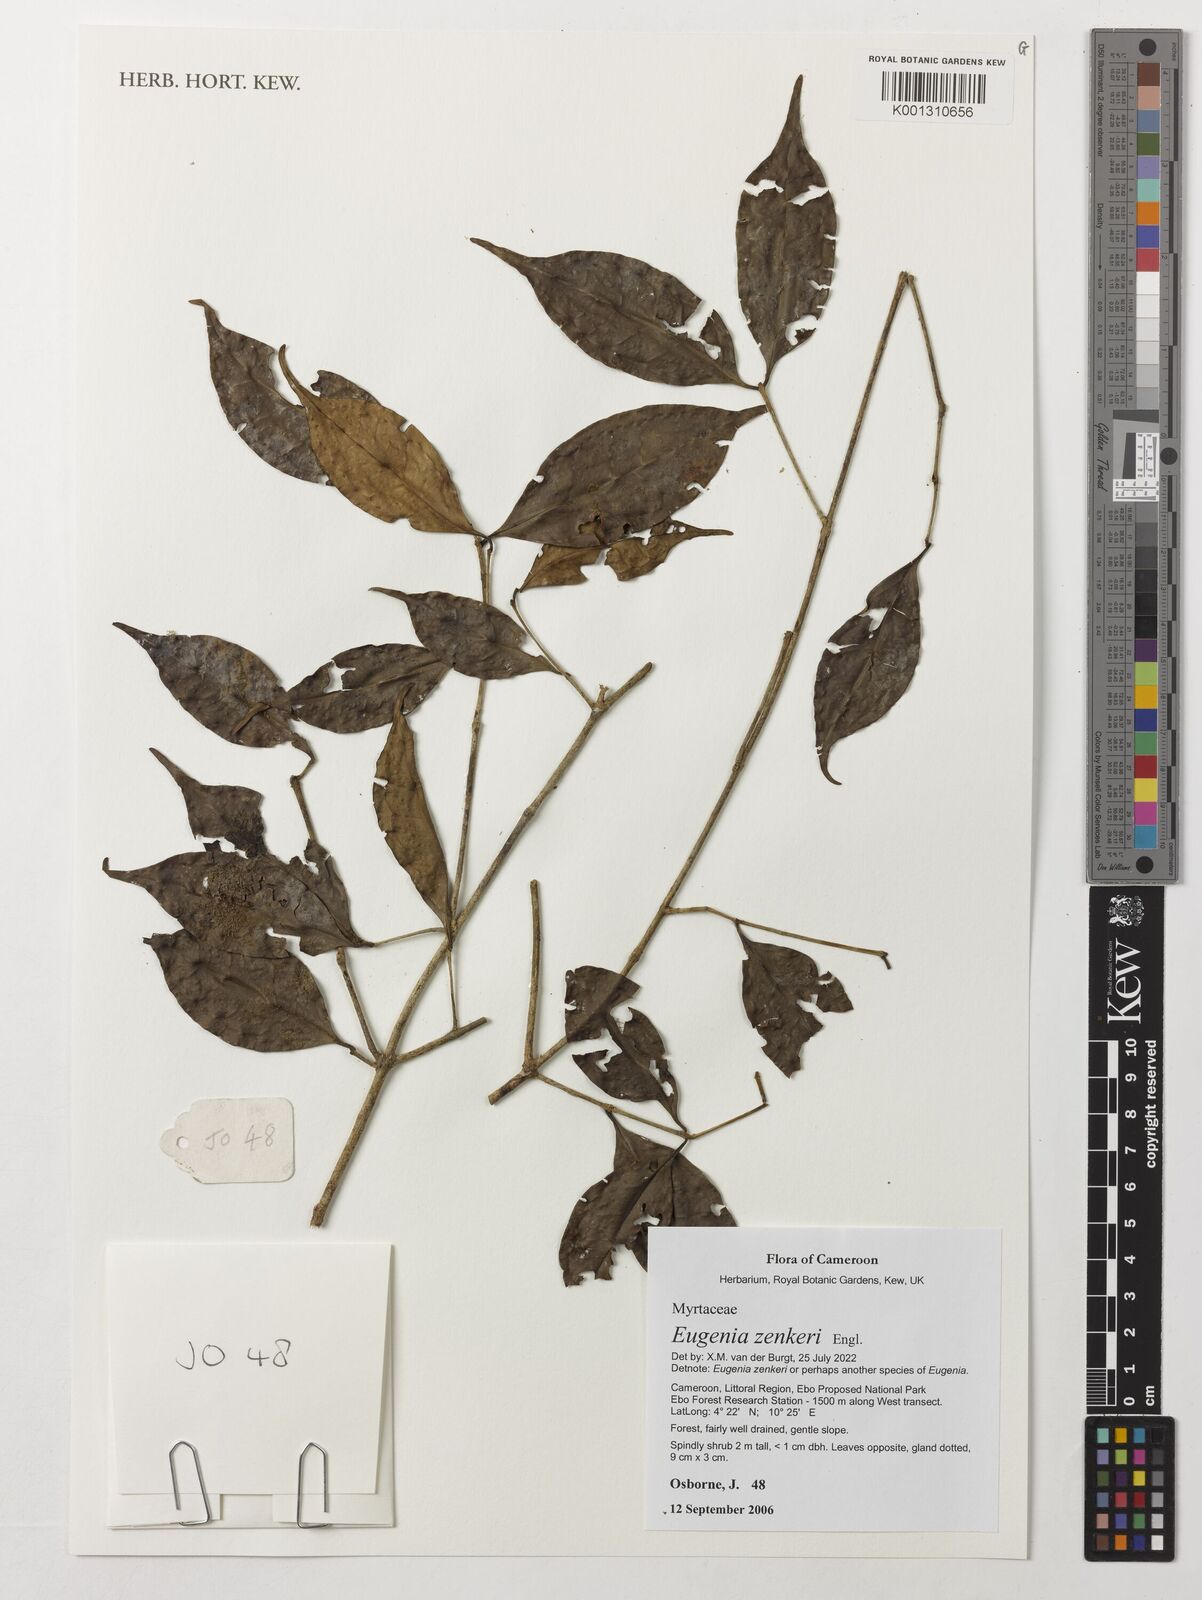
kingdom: Plantae
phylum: Tracheophyta
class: Magnoliopsida
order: Myrtales
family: Myrtaceae
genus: Eugenia
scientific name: Eugenia zenkeri
